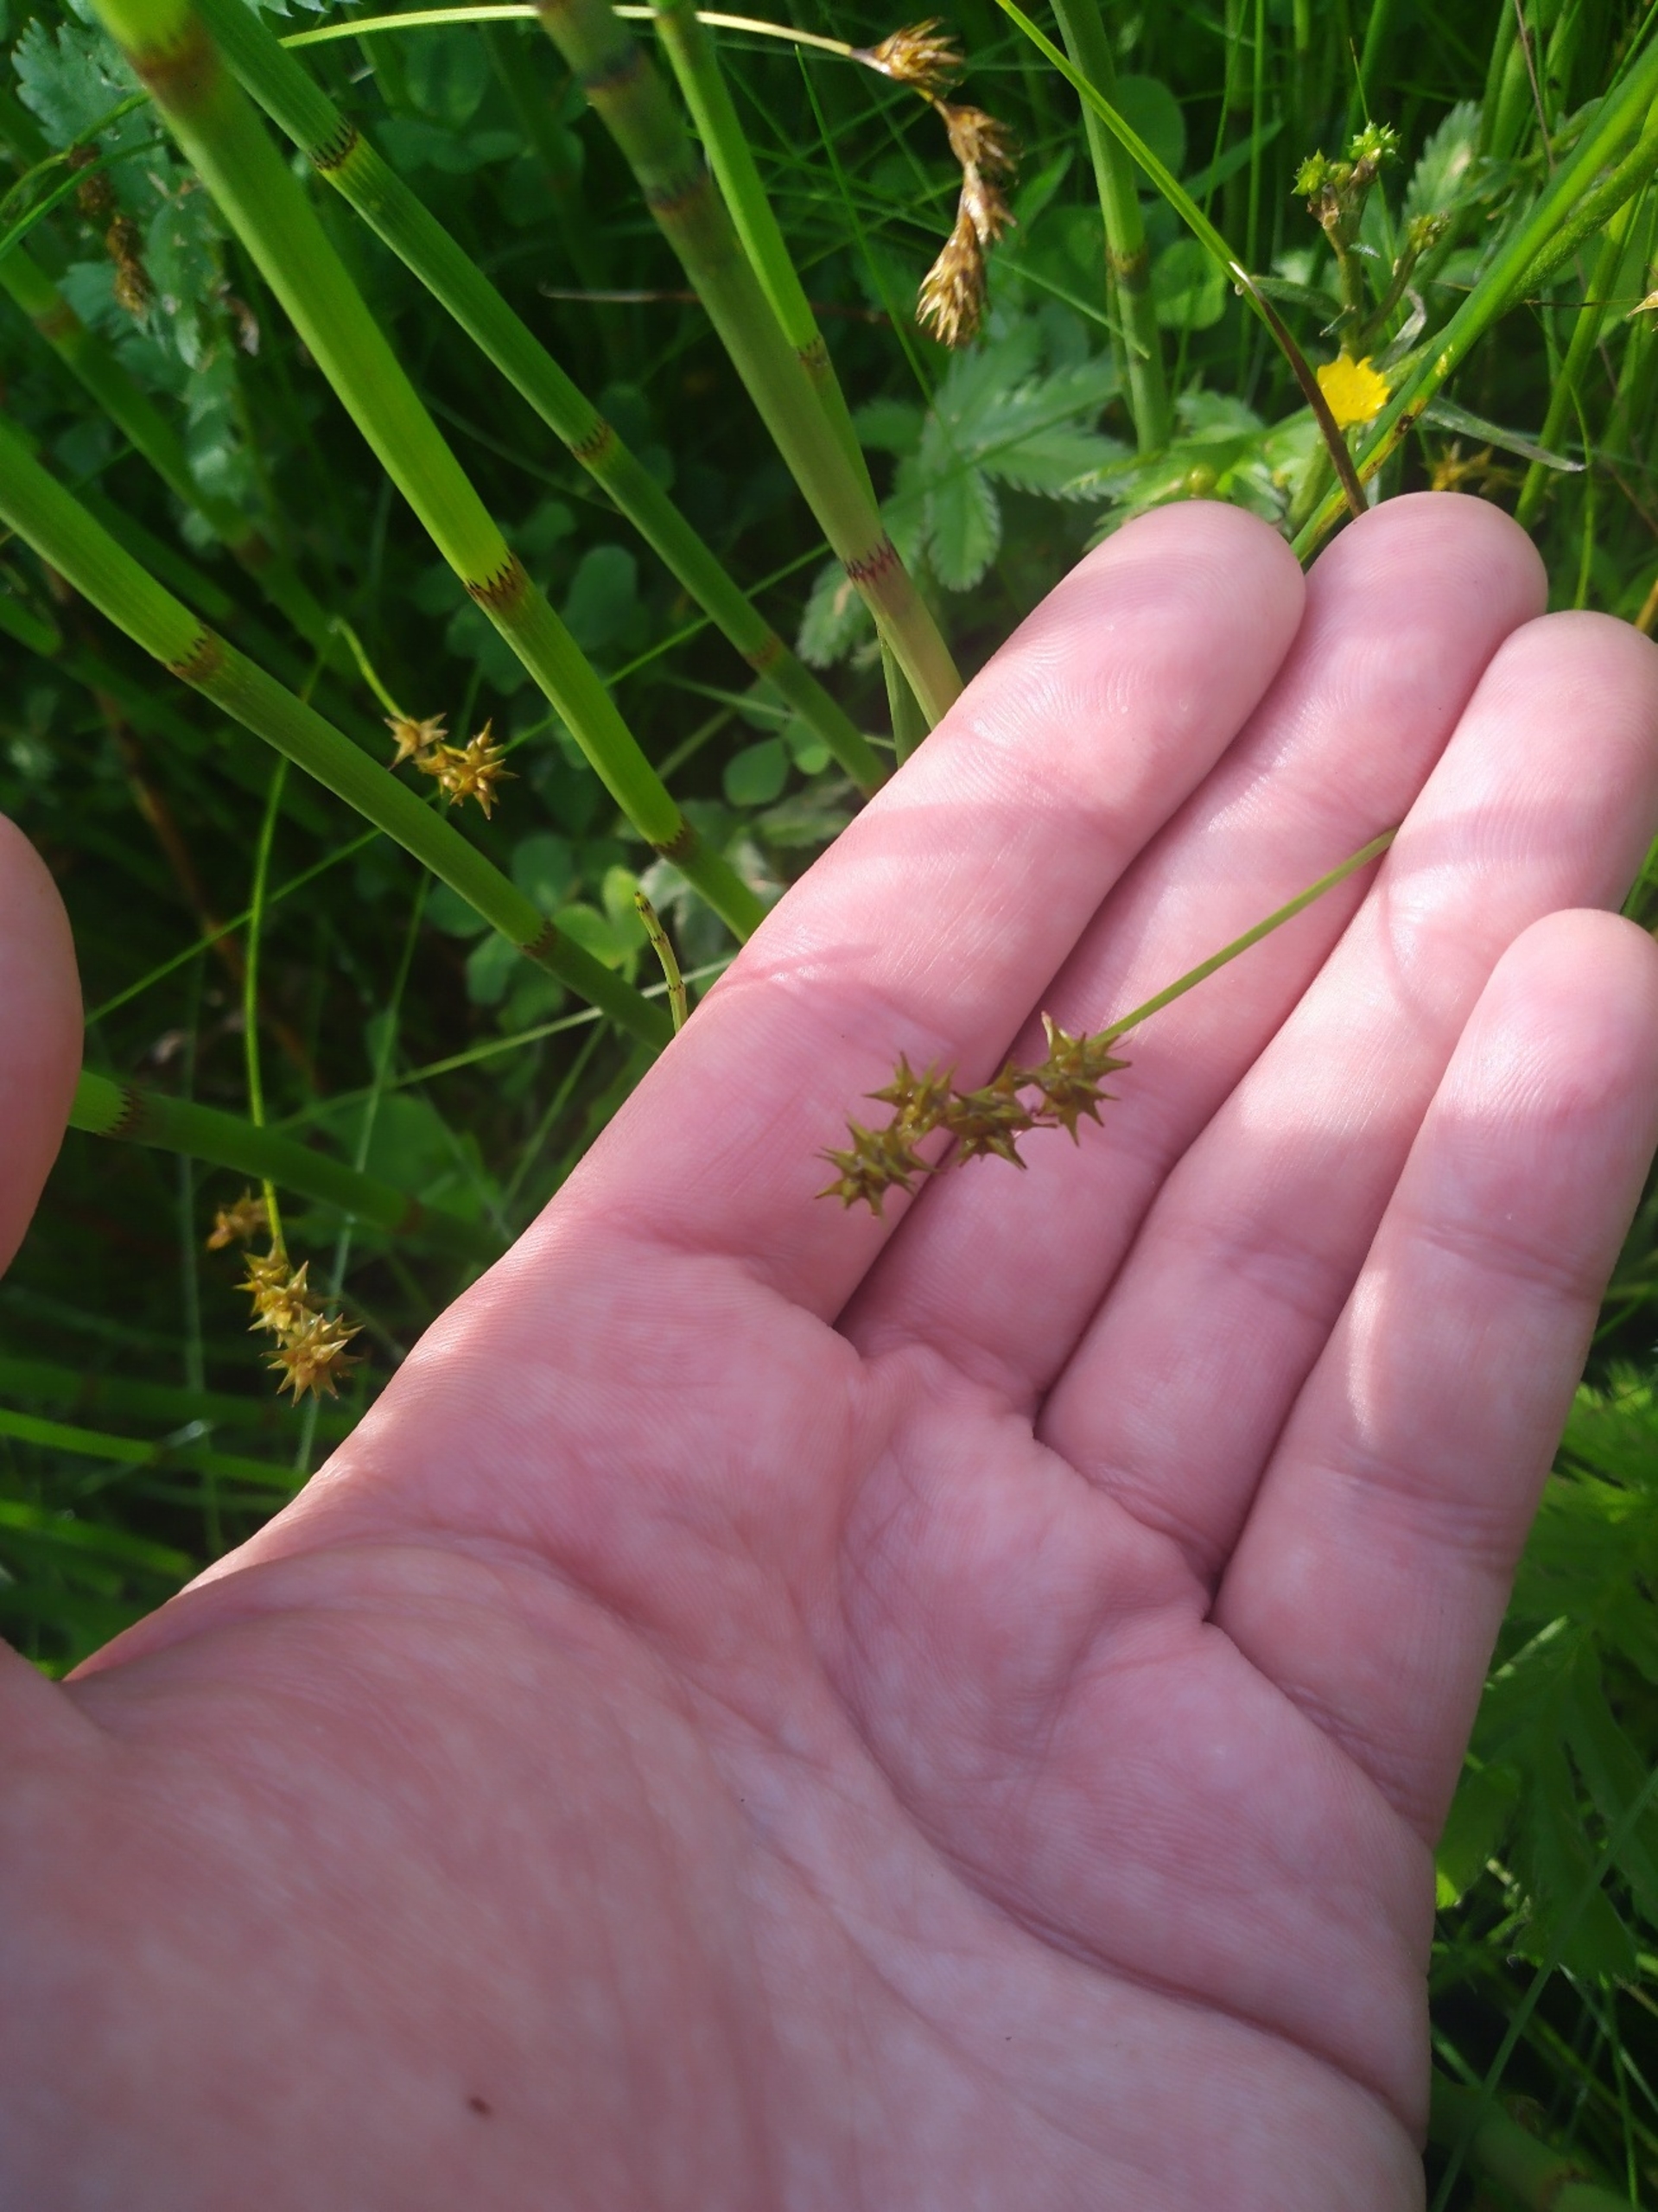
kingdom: Plantae
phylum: Tracheophyta
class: Liliopsida
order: Poales
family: Cyperaceae
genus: Carex
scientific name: Carex echinata
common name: Stjerne-star
